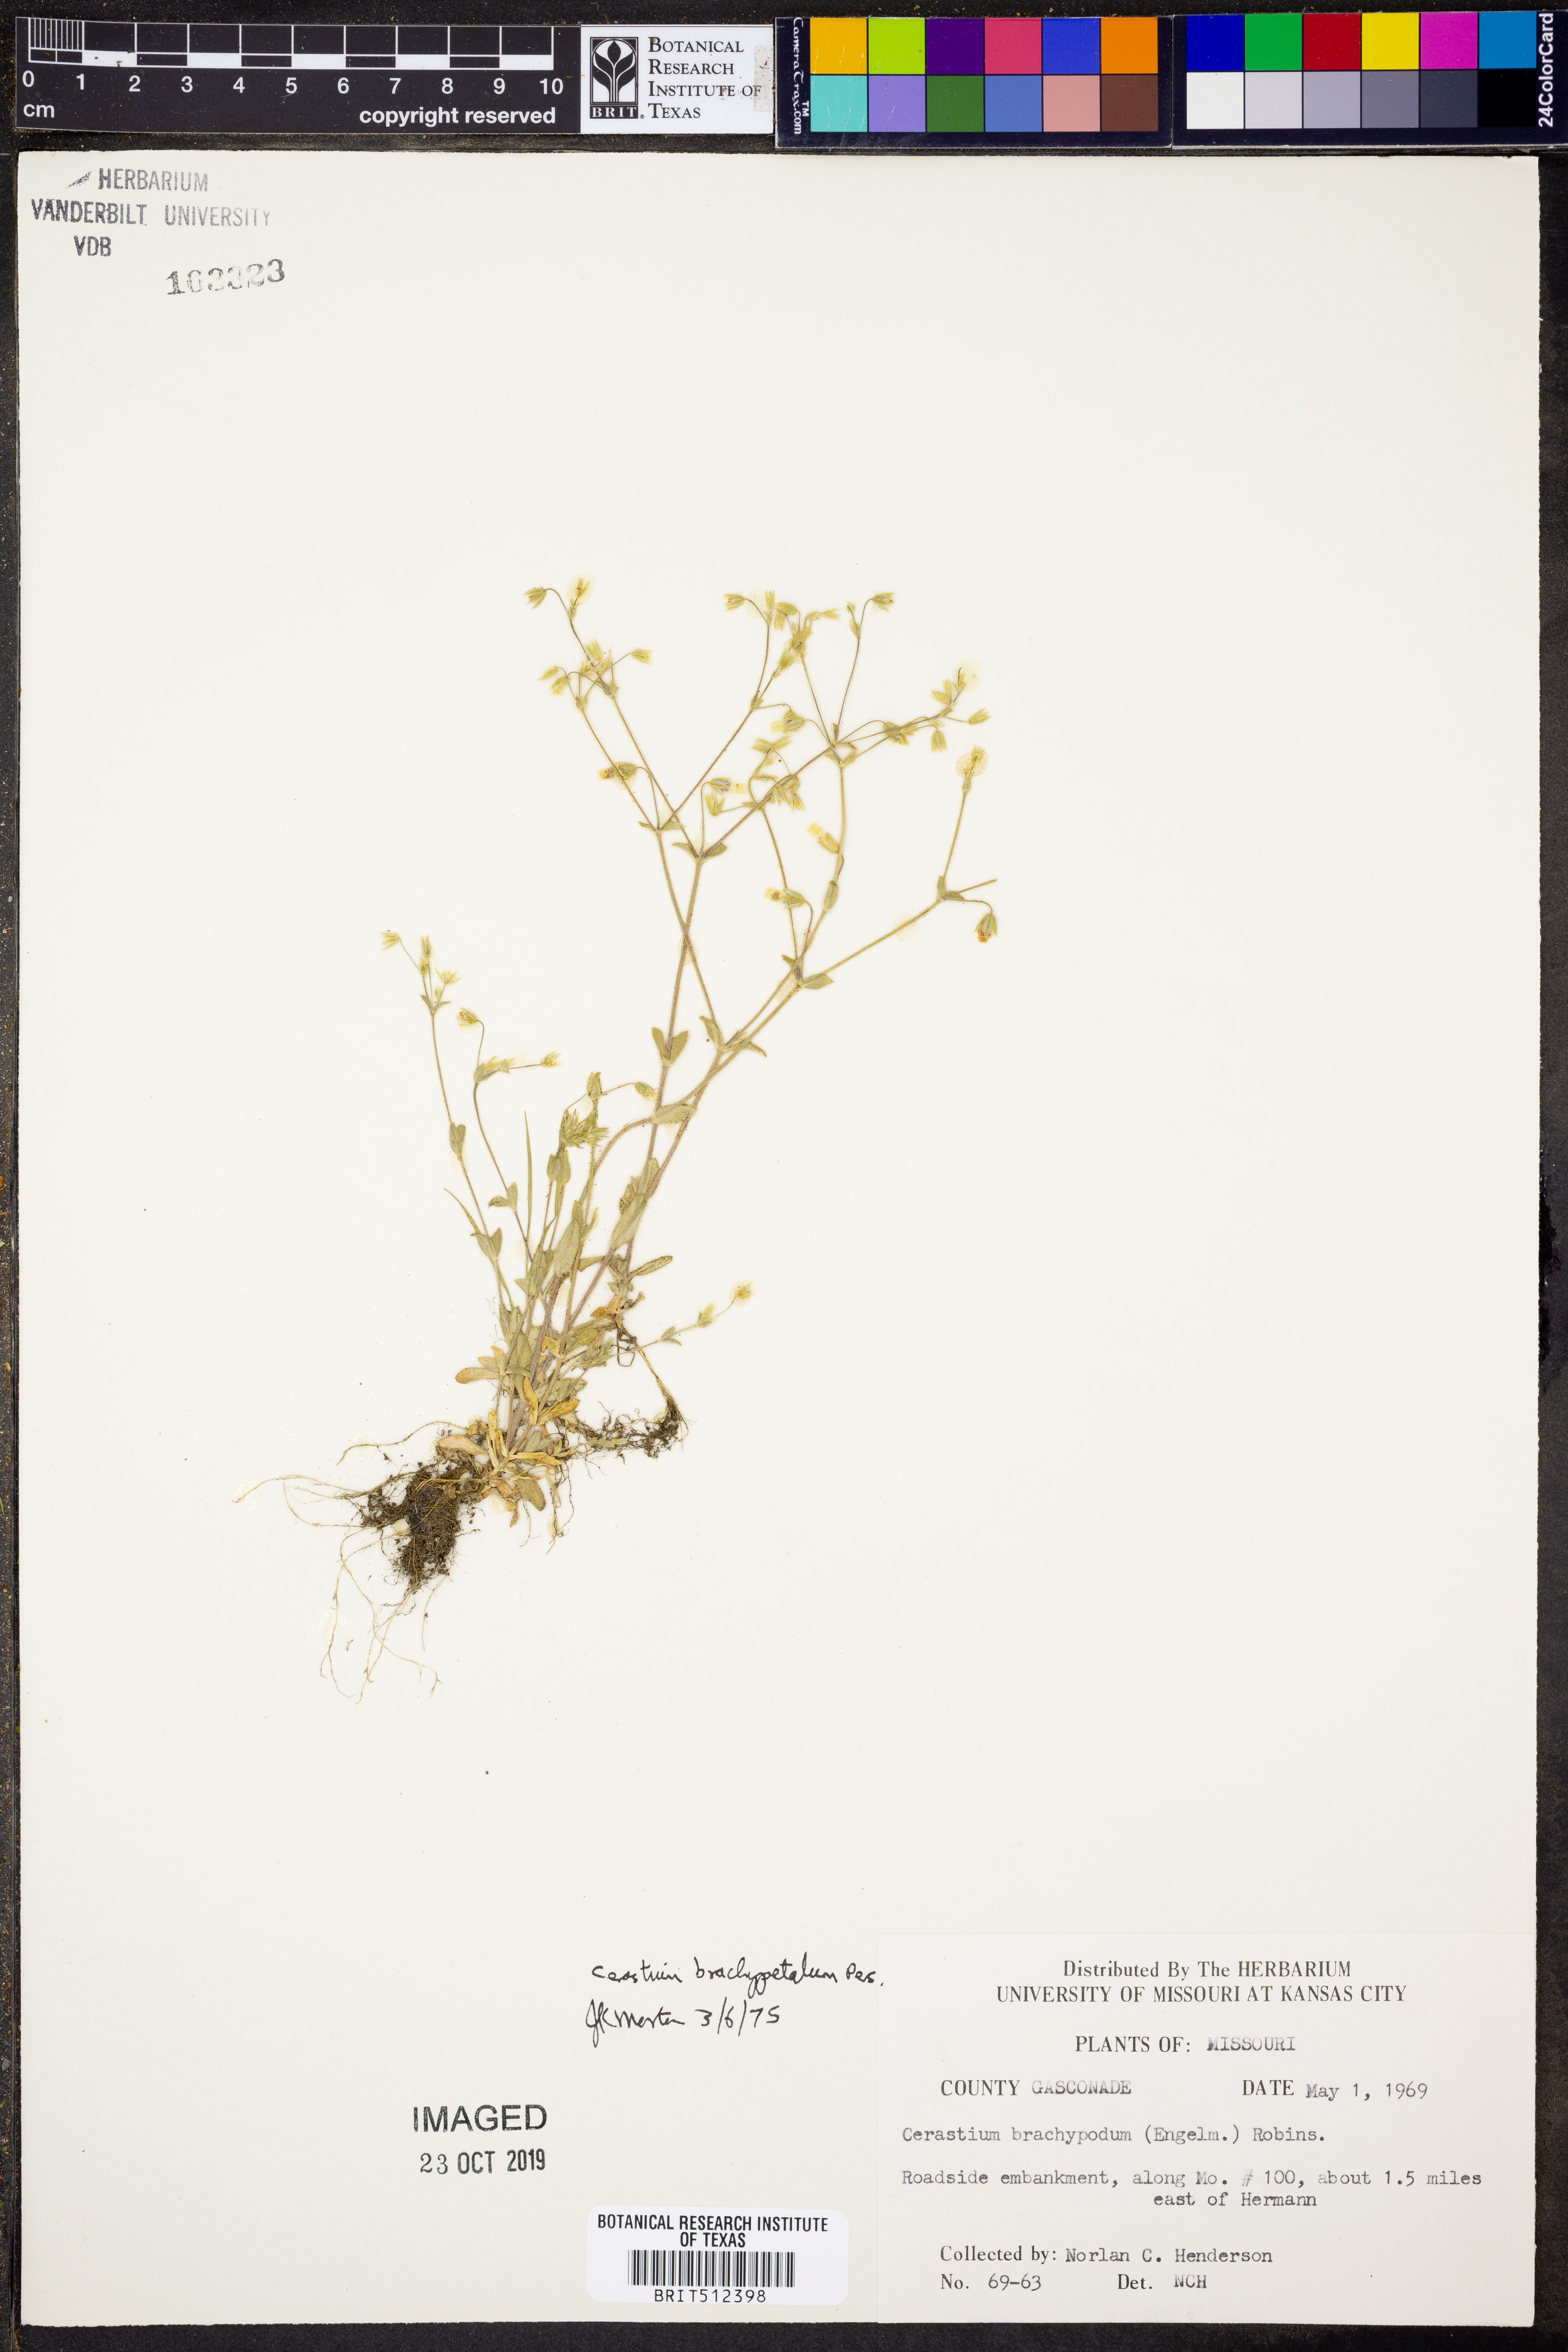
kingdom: Plantae
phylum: Tracheophyta
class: Magnoliopsida
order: Caryophyllales
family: Caryophyllaceae
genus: Cerastium
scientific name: Cerastium brachypetalum
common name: Grey mouse-ear
